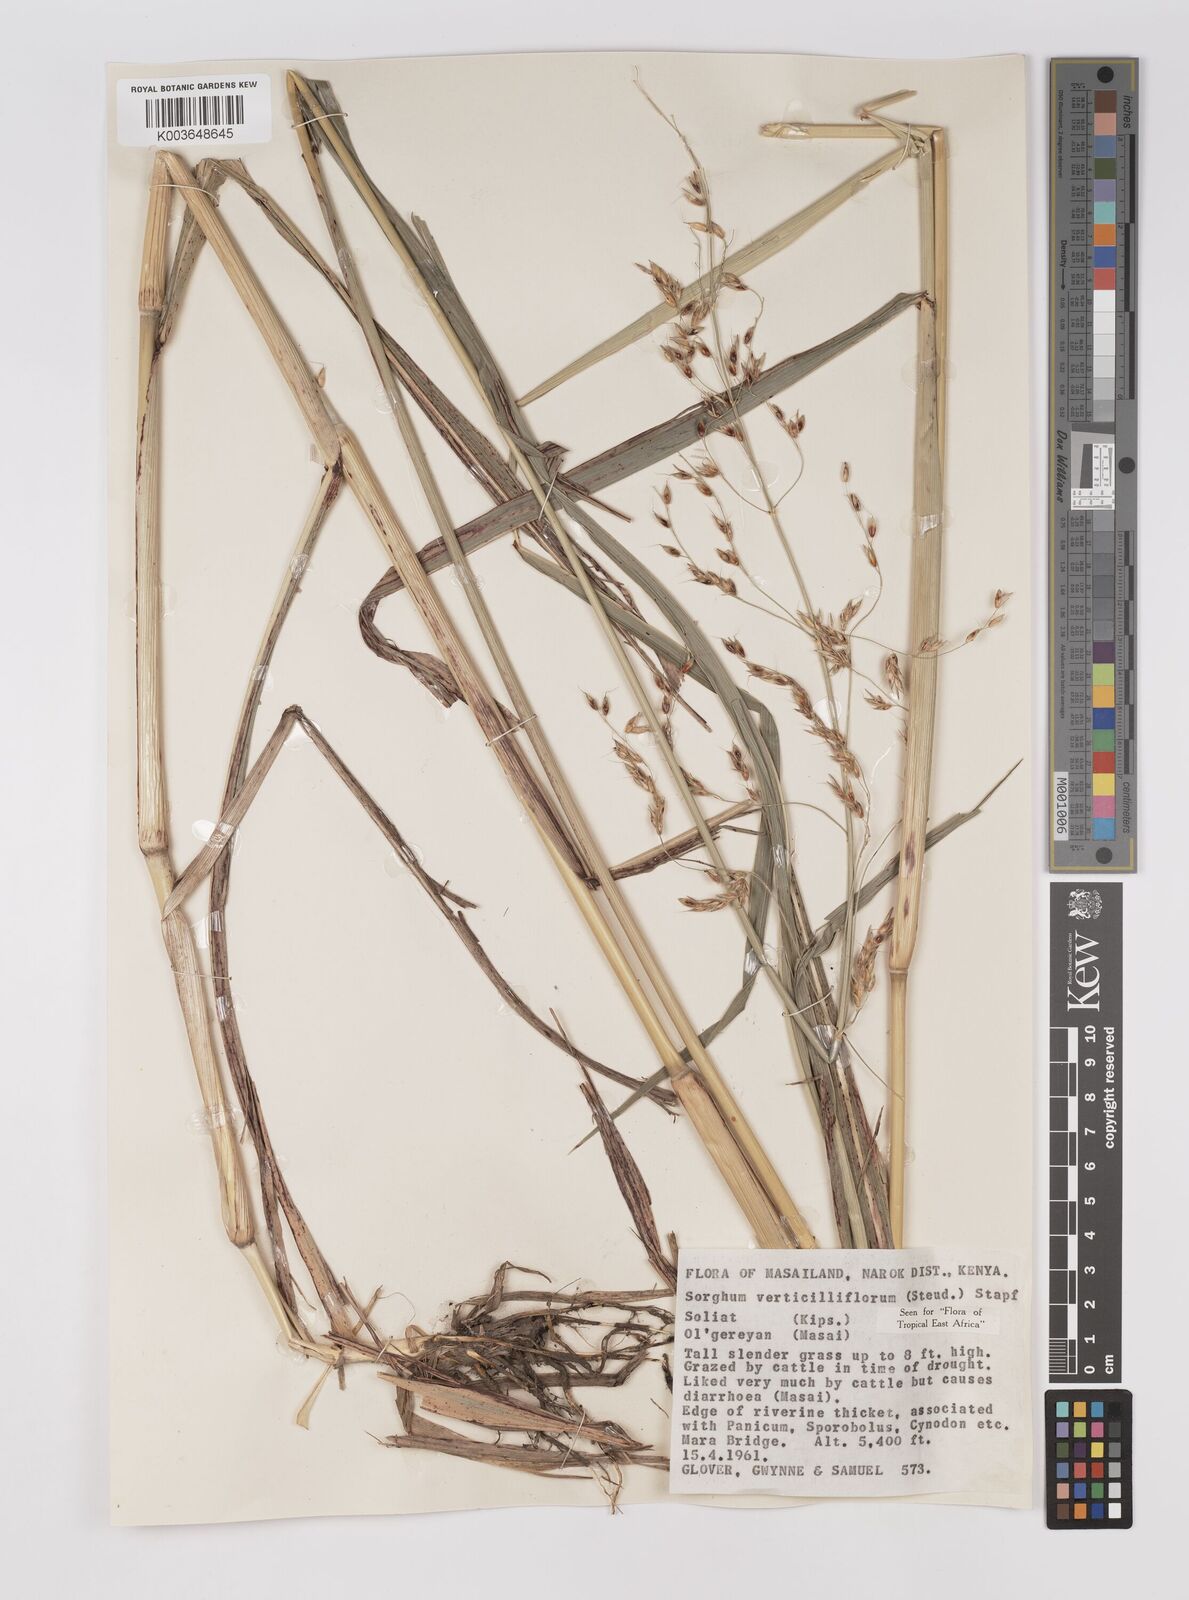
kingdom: Plantae
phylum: Tracheophyta
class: Liliopsida
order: Poales
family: Poaceae
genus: Sorghum
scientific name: Sorghum arundinaceum
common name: Sorghum
